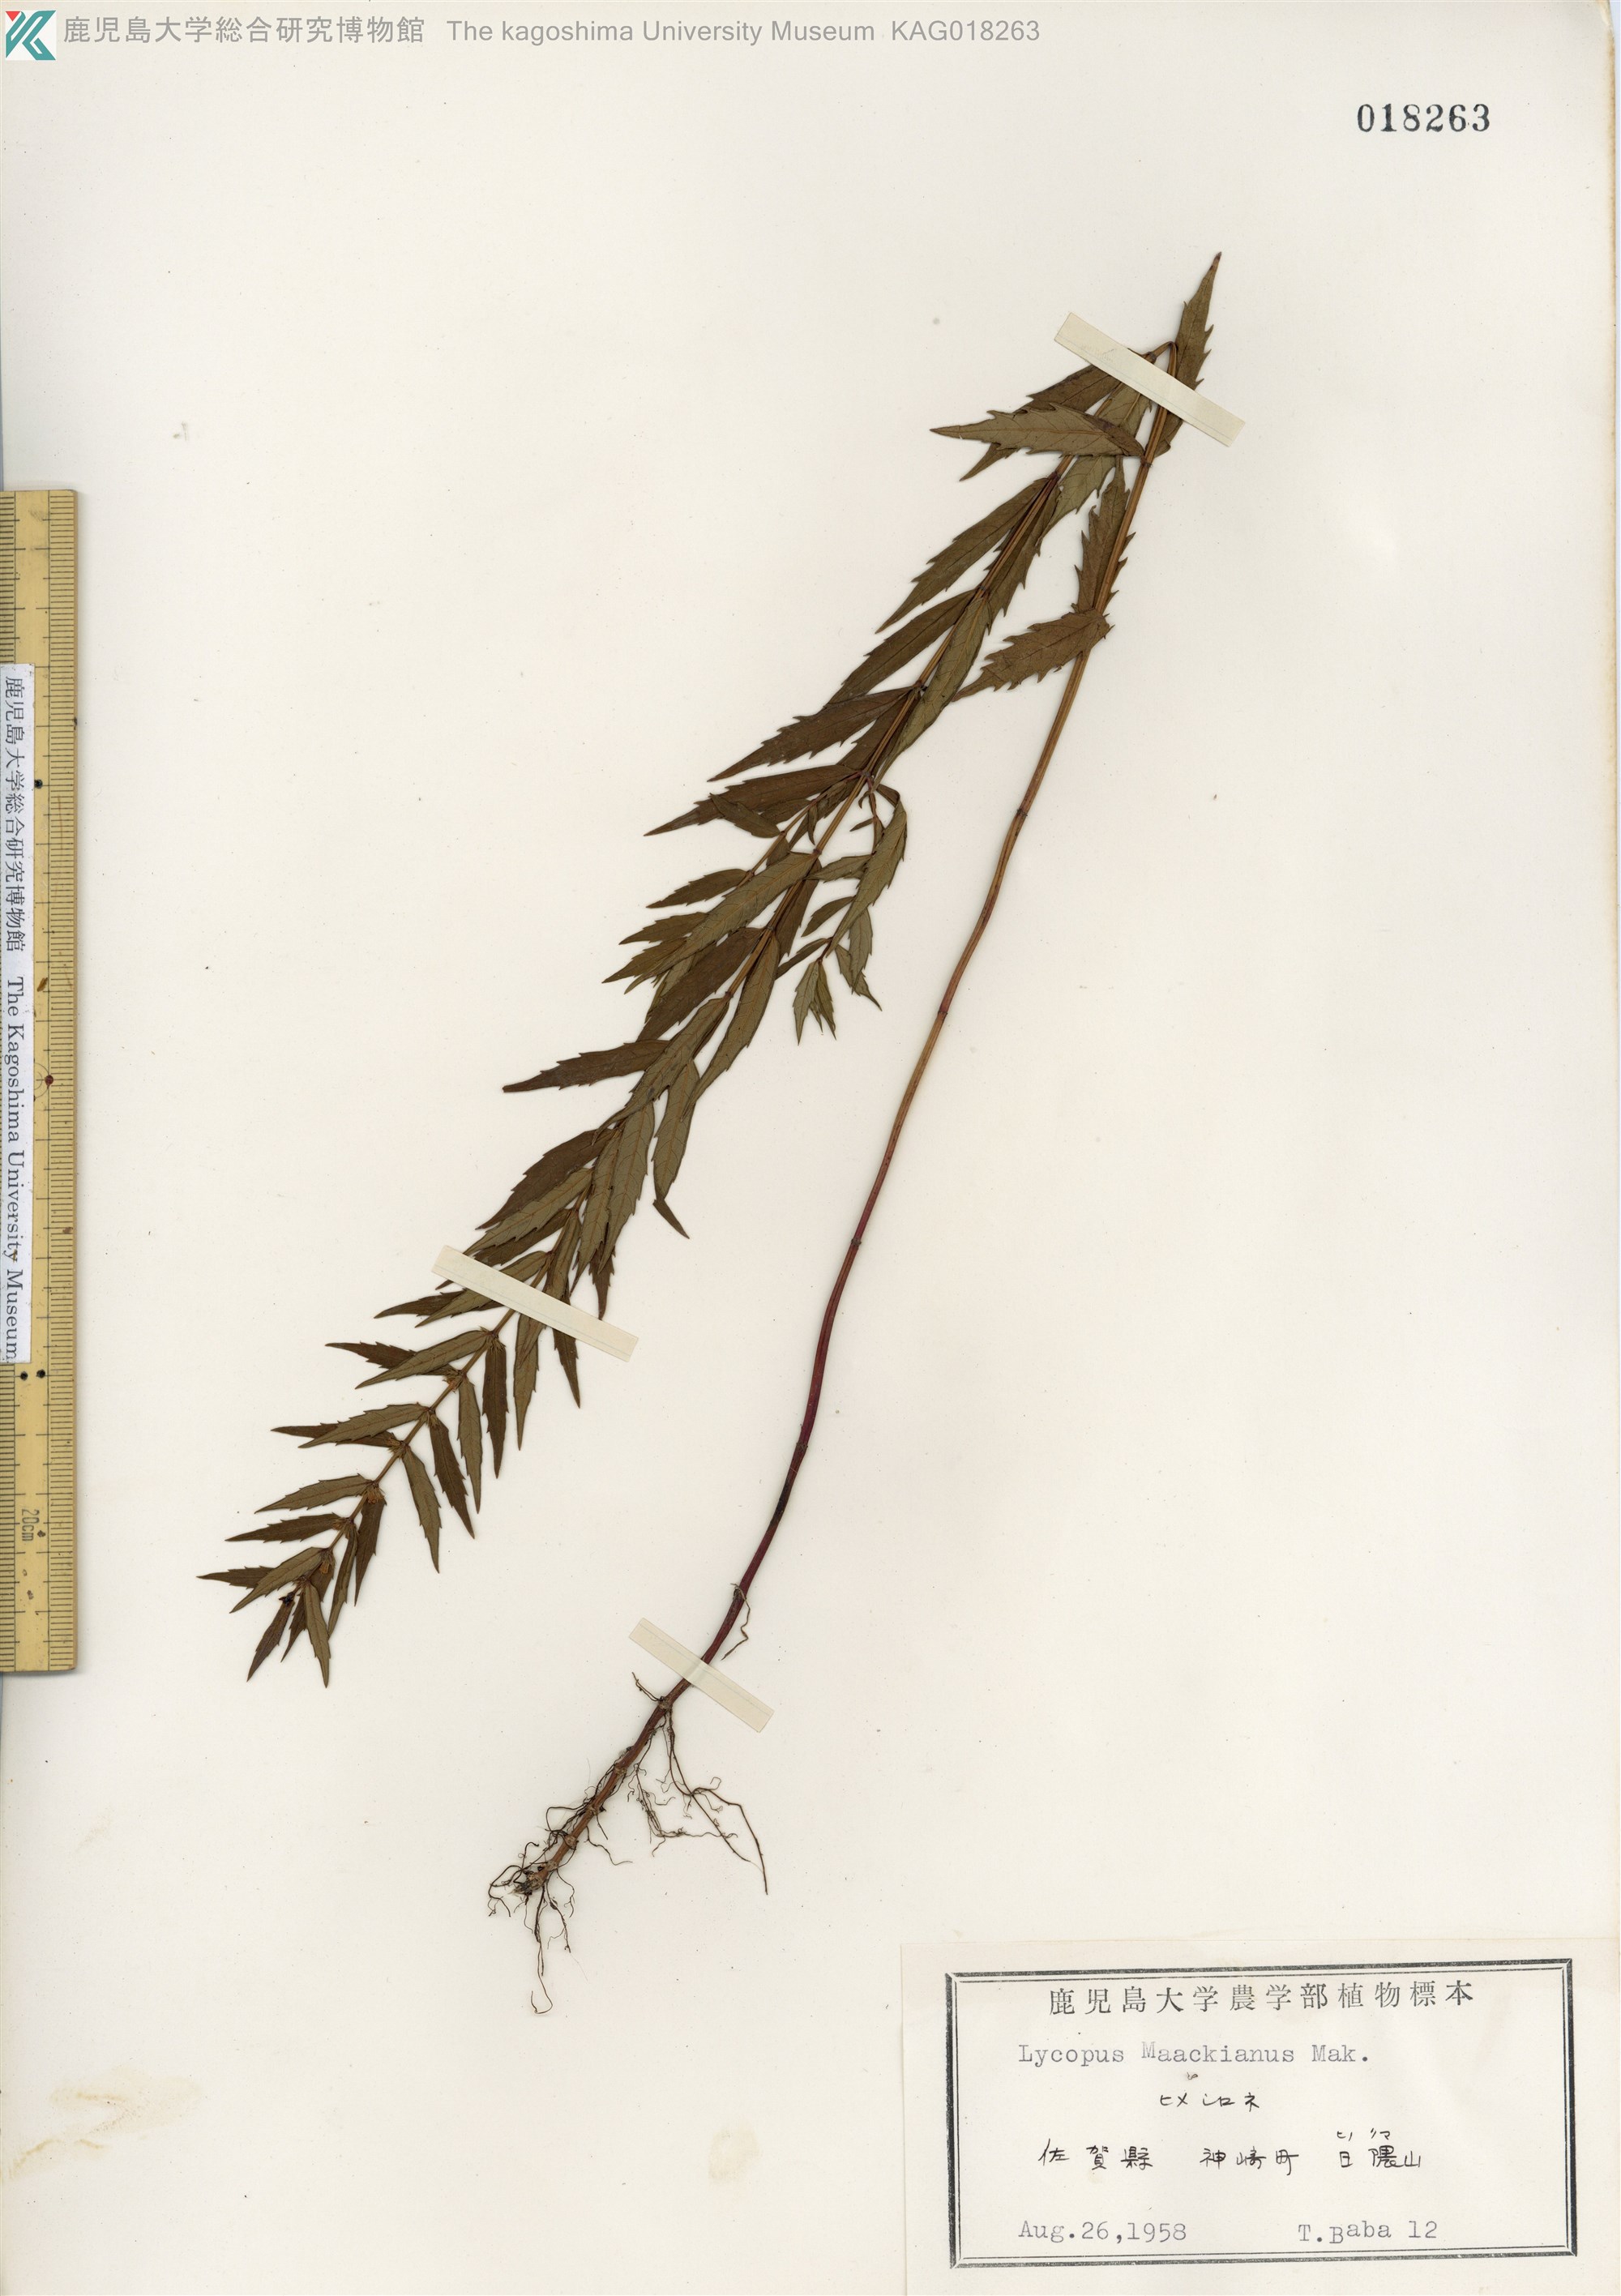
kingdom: Plantae
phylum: Tracheophyta
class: Magnoliopsida
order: Lamiales
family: Lamiaceae
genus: Lycopus
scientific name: Lycopus lucidus
